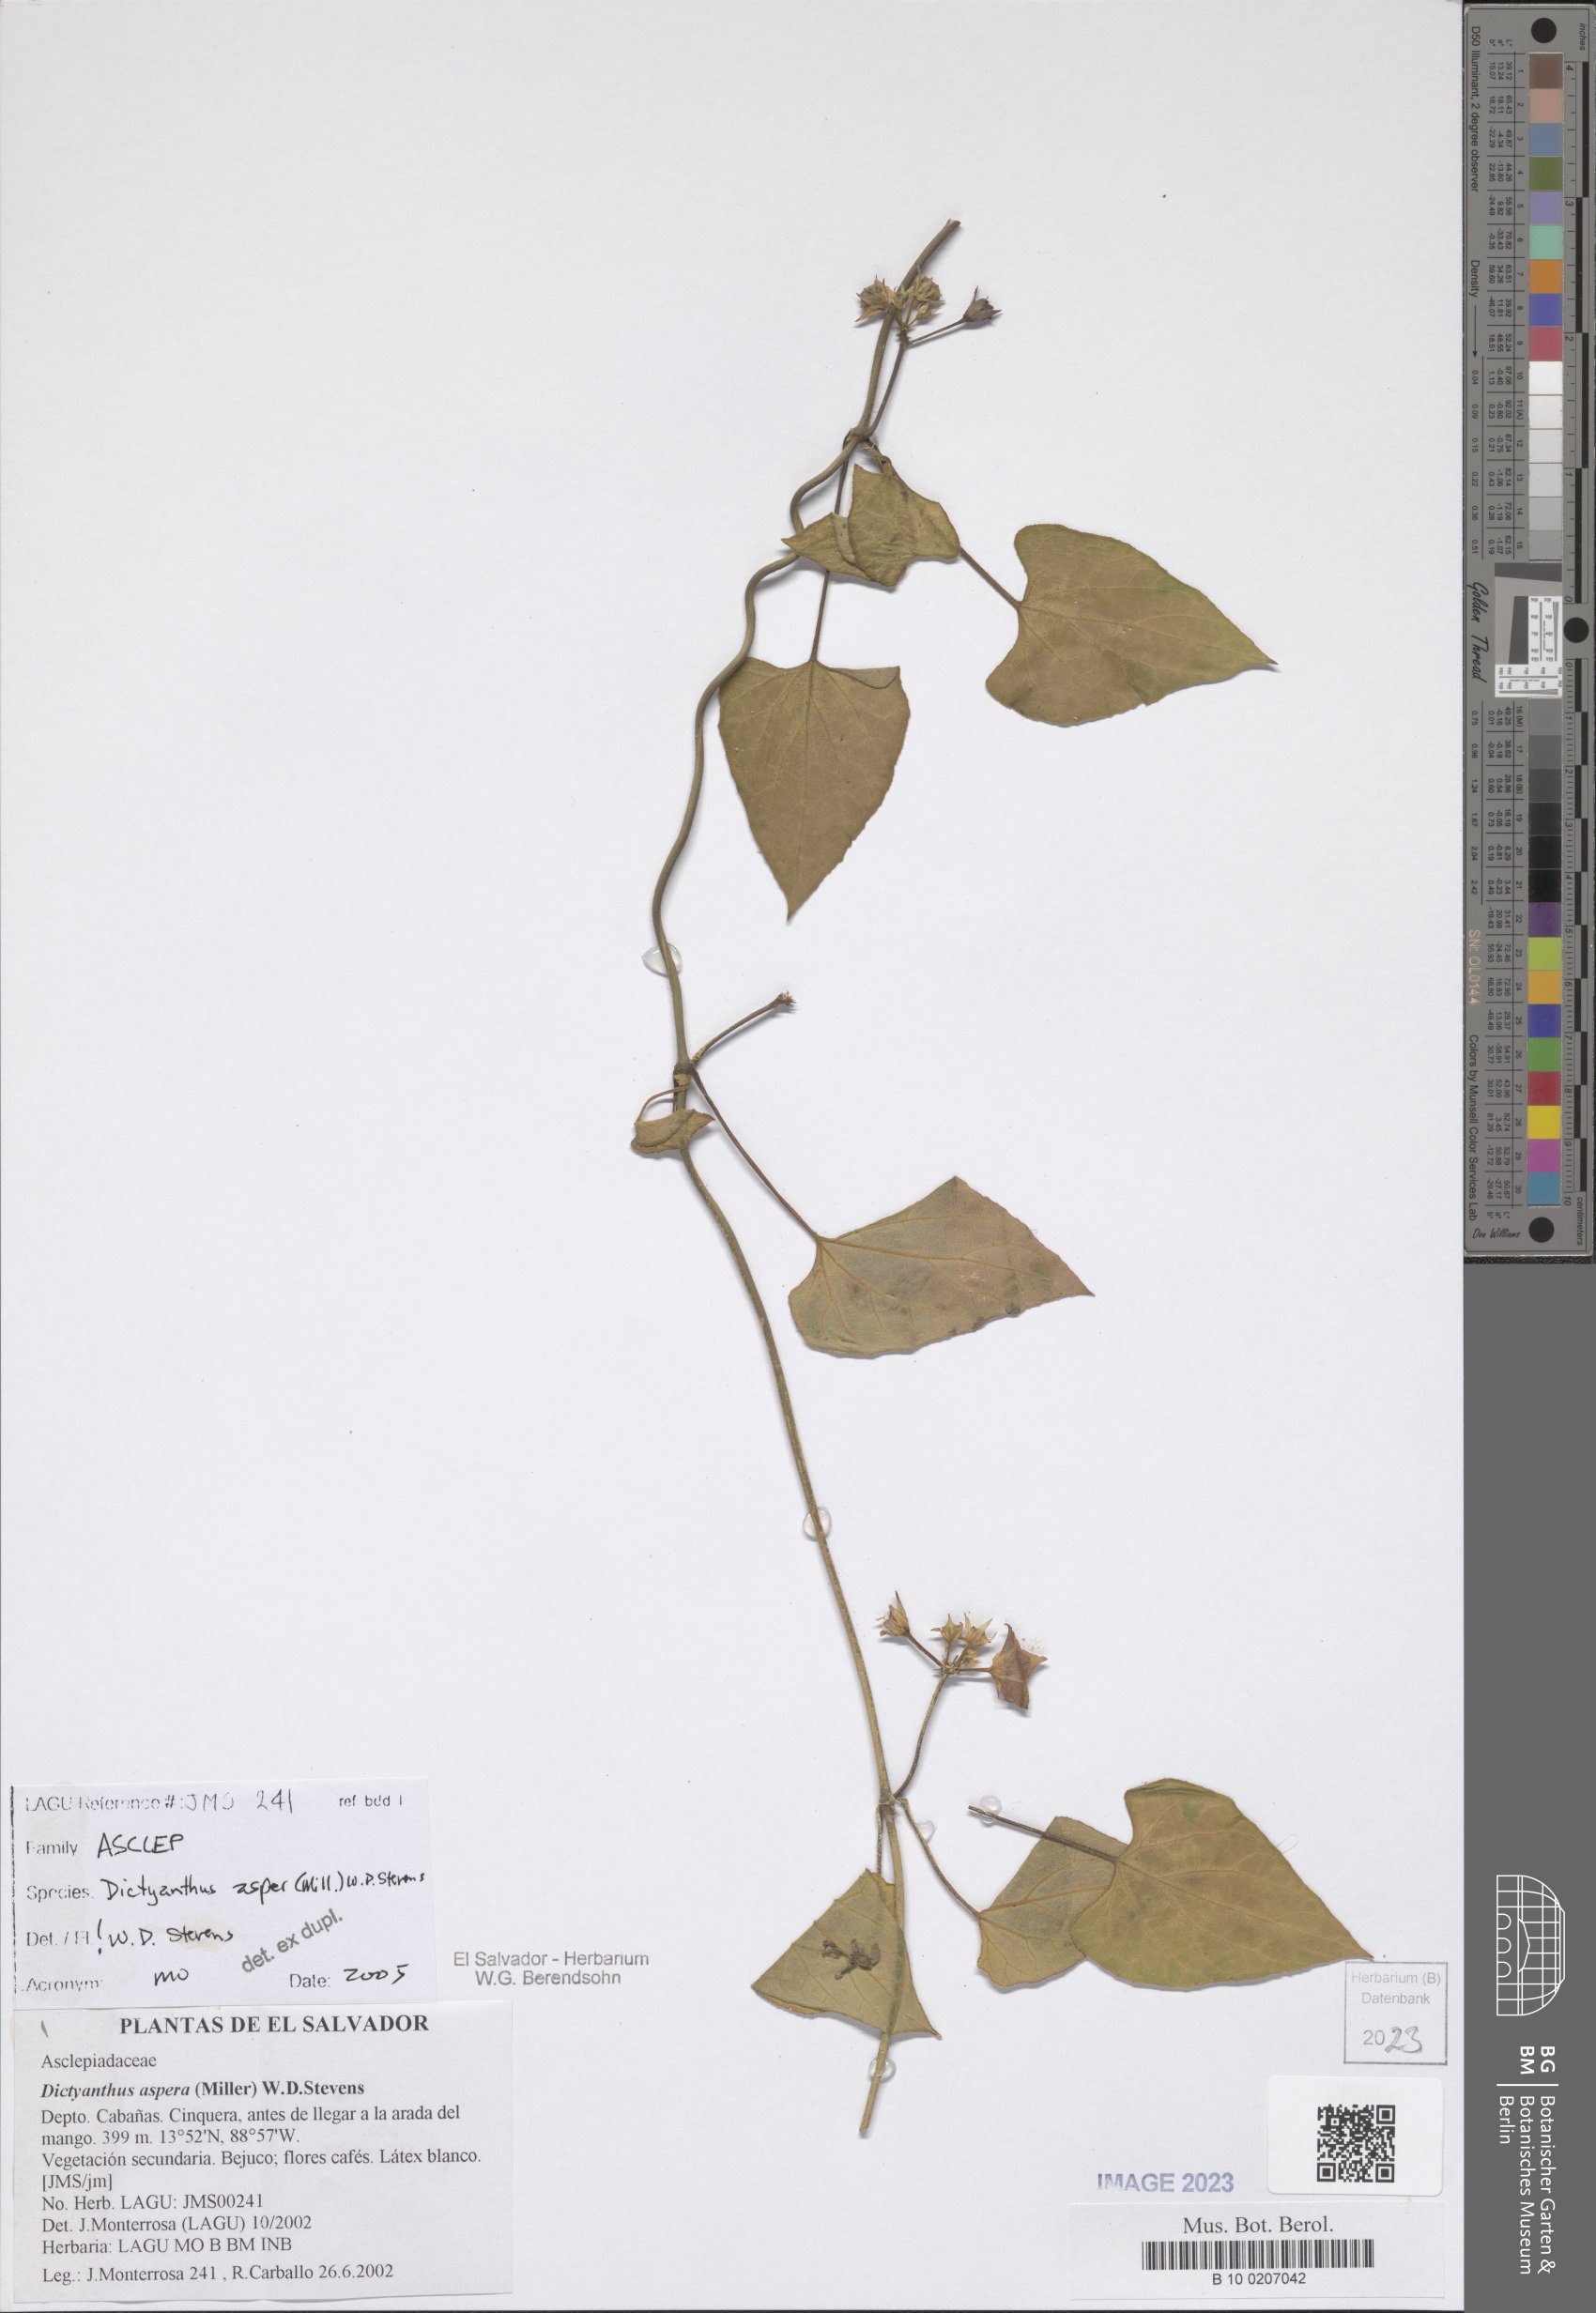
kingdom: Plantae
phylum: Tracheophyta
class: Magnoliopsida
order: Gentianales
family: Apocynaceae
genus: Dictyanthus
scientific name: Dictyanthus asper
